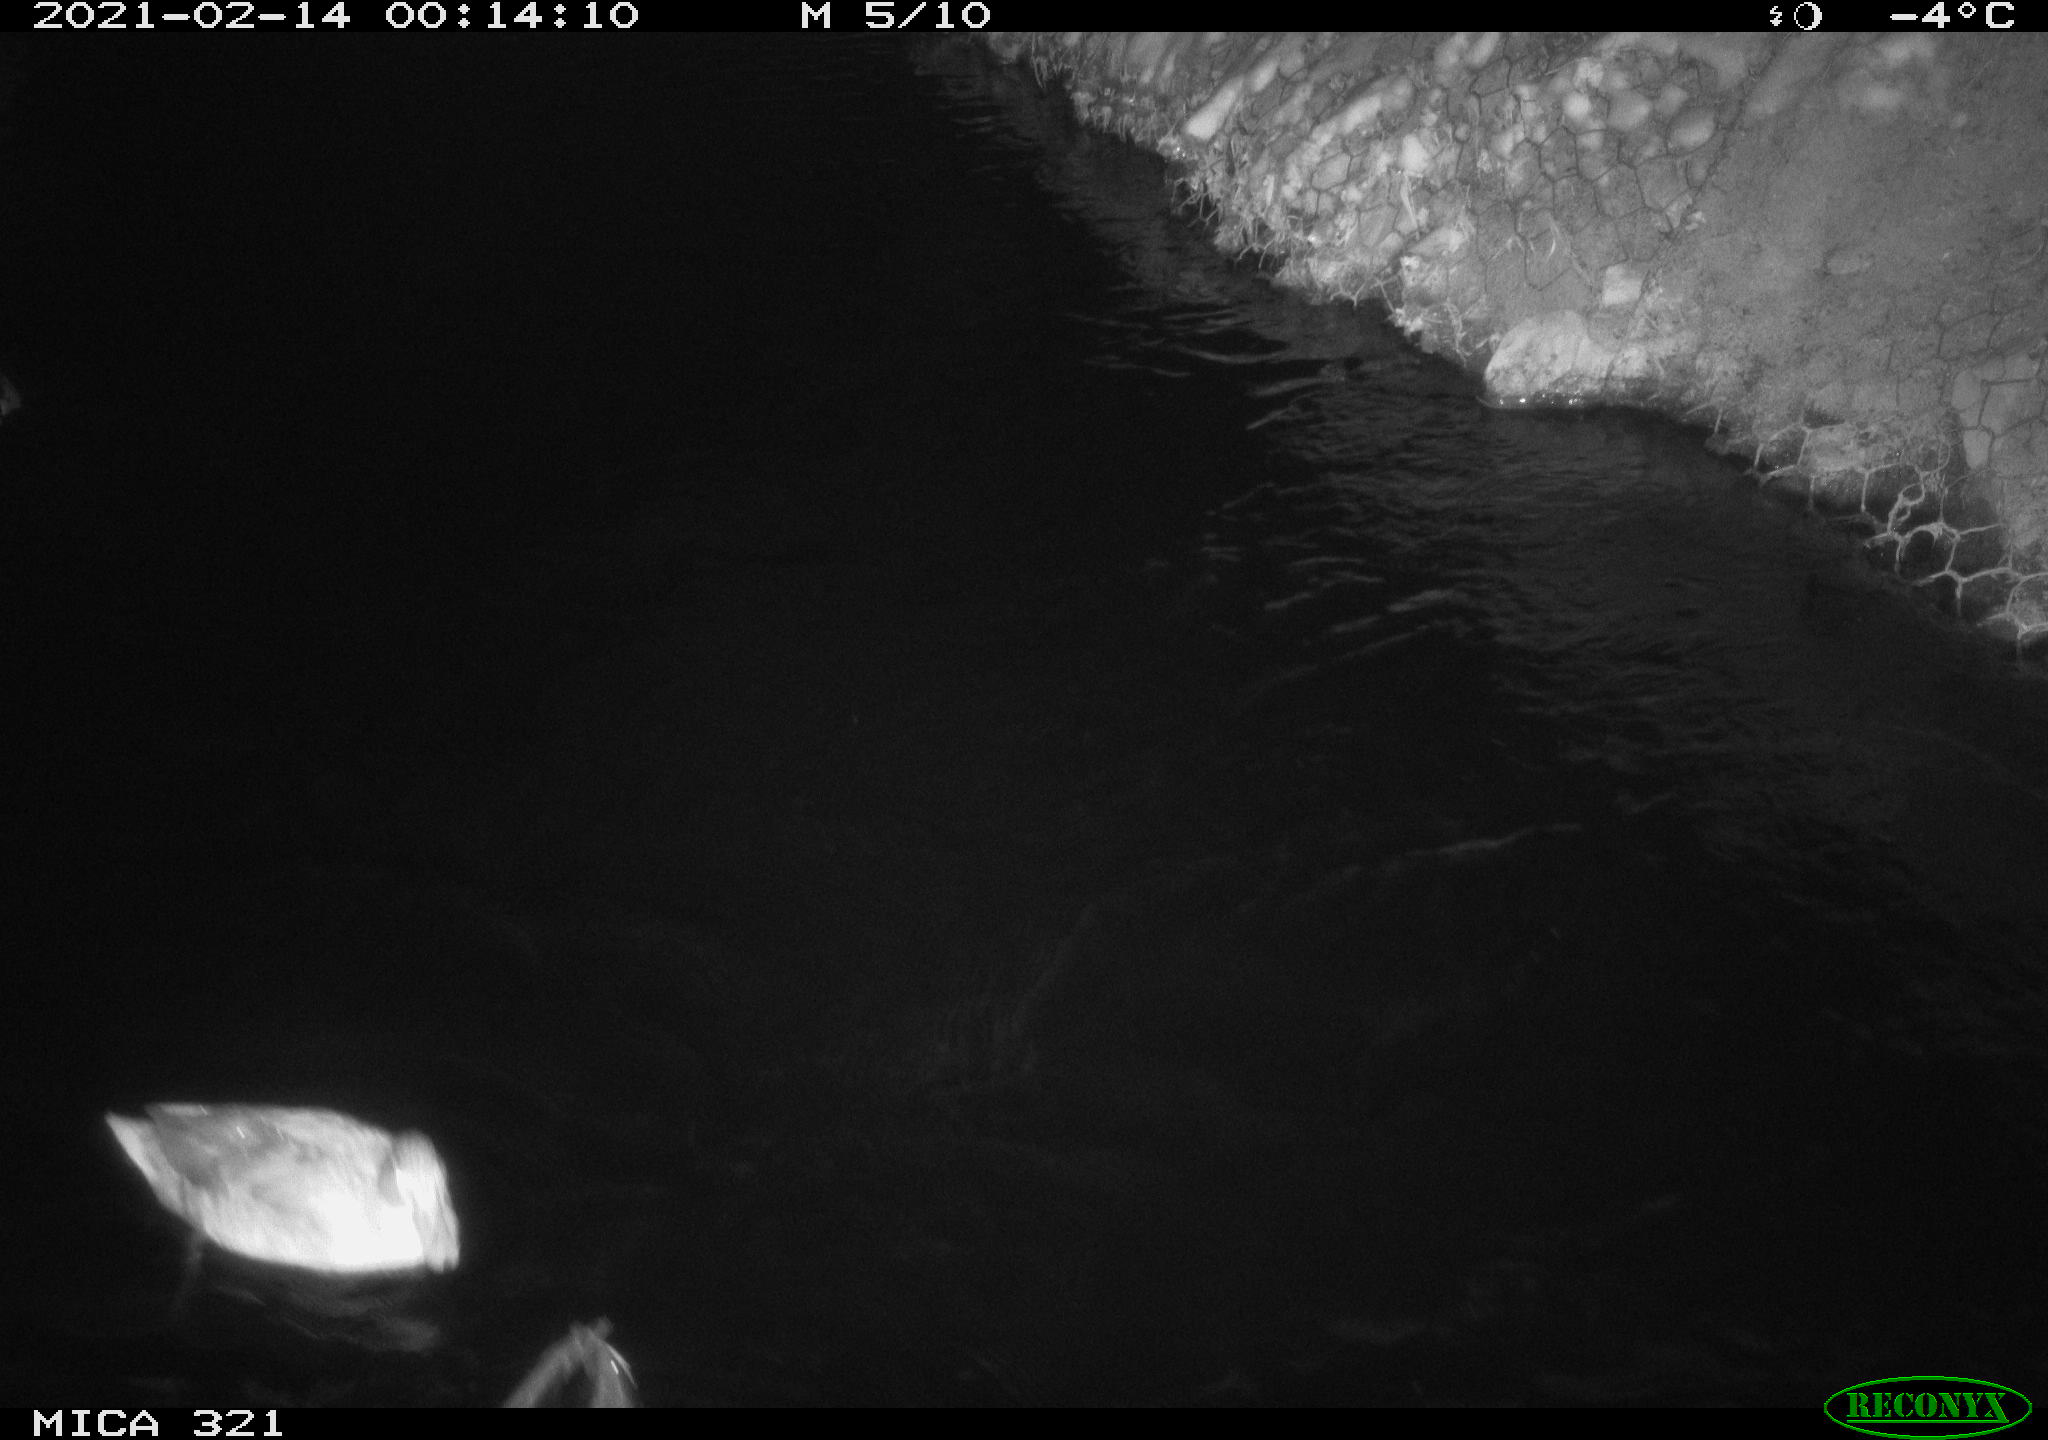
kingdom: Animalia
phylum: Chordata
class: Aves
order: Anseriformes
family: Anatidae
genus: Anas
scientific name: Anas platyrhynchos
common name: Mallard
